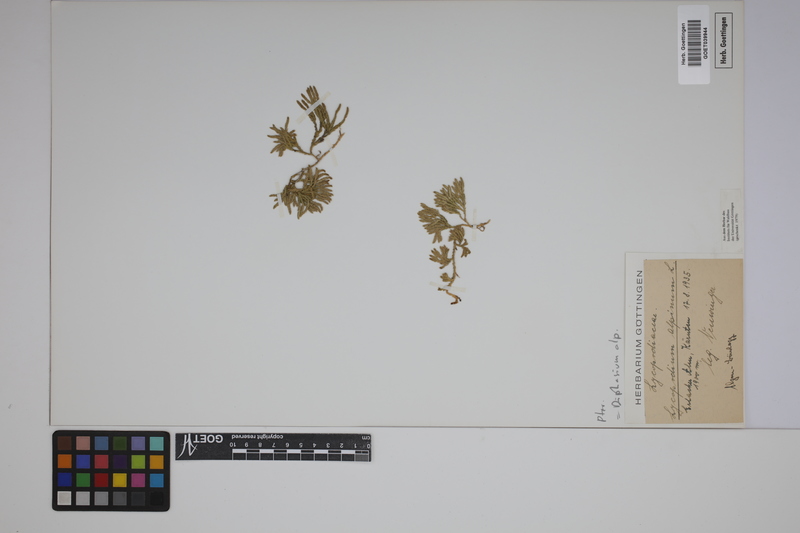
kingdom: Plantae
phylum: Tracheophyta
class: Lycopodiopsida
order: Lycopodiales
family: Lycopodiaceae
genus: Diphasiastrum
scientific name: Diphasiastrum alpinum
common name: Alpine clubmoss
